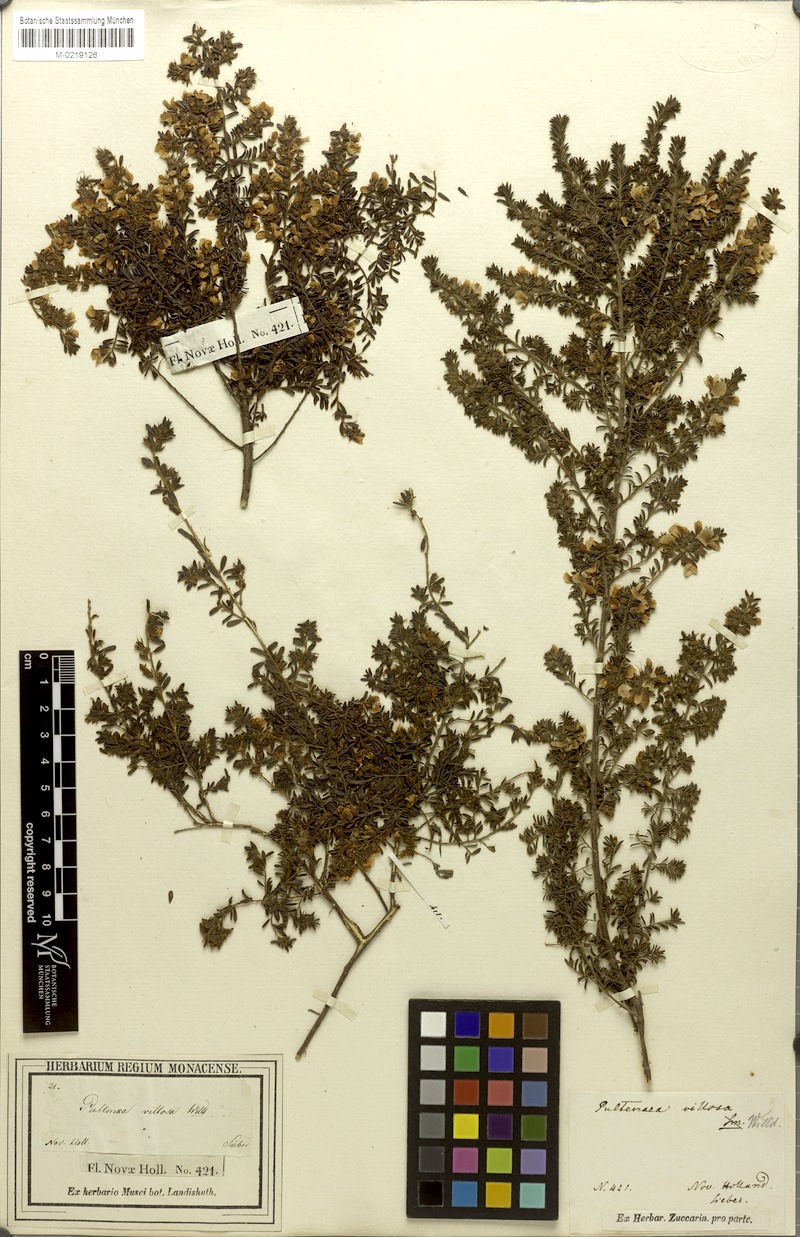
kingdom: Plantae
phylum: Tracheophyta
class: Magnoliopsida
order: Fabales
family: Fabaceae
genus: Pultenaea
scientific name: Pultenaea villosa
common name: Bronze bush-pea
